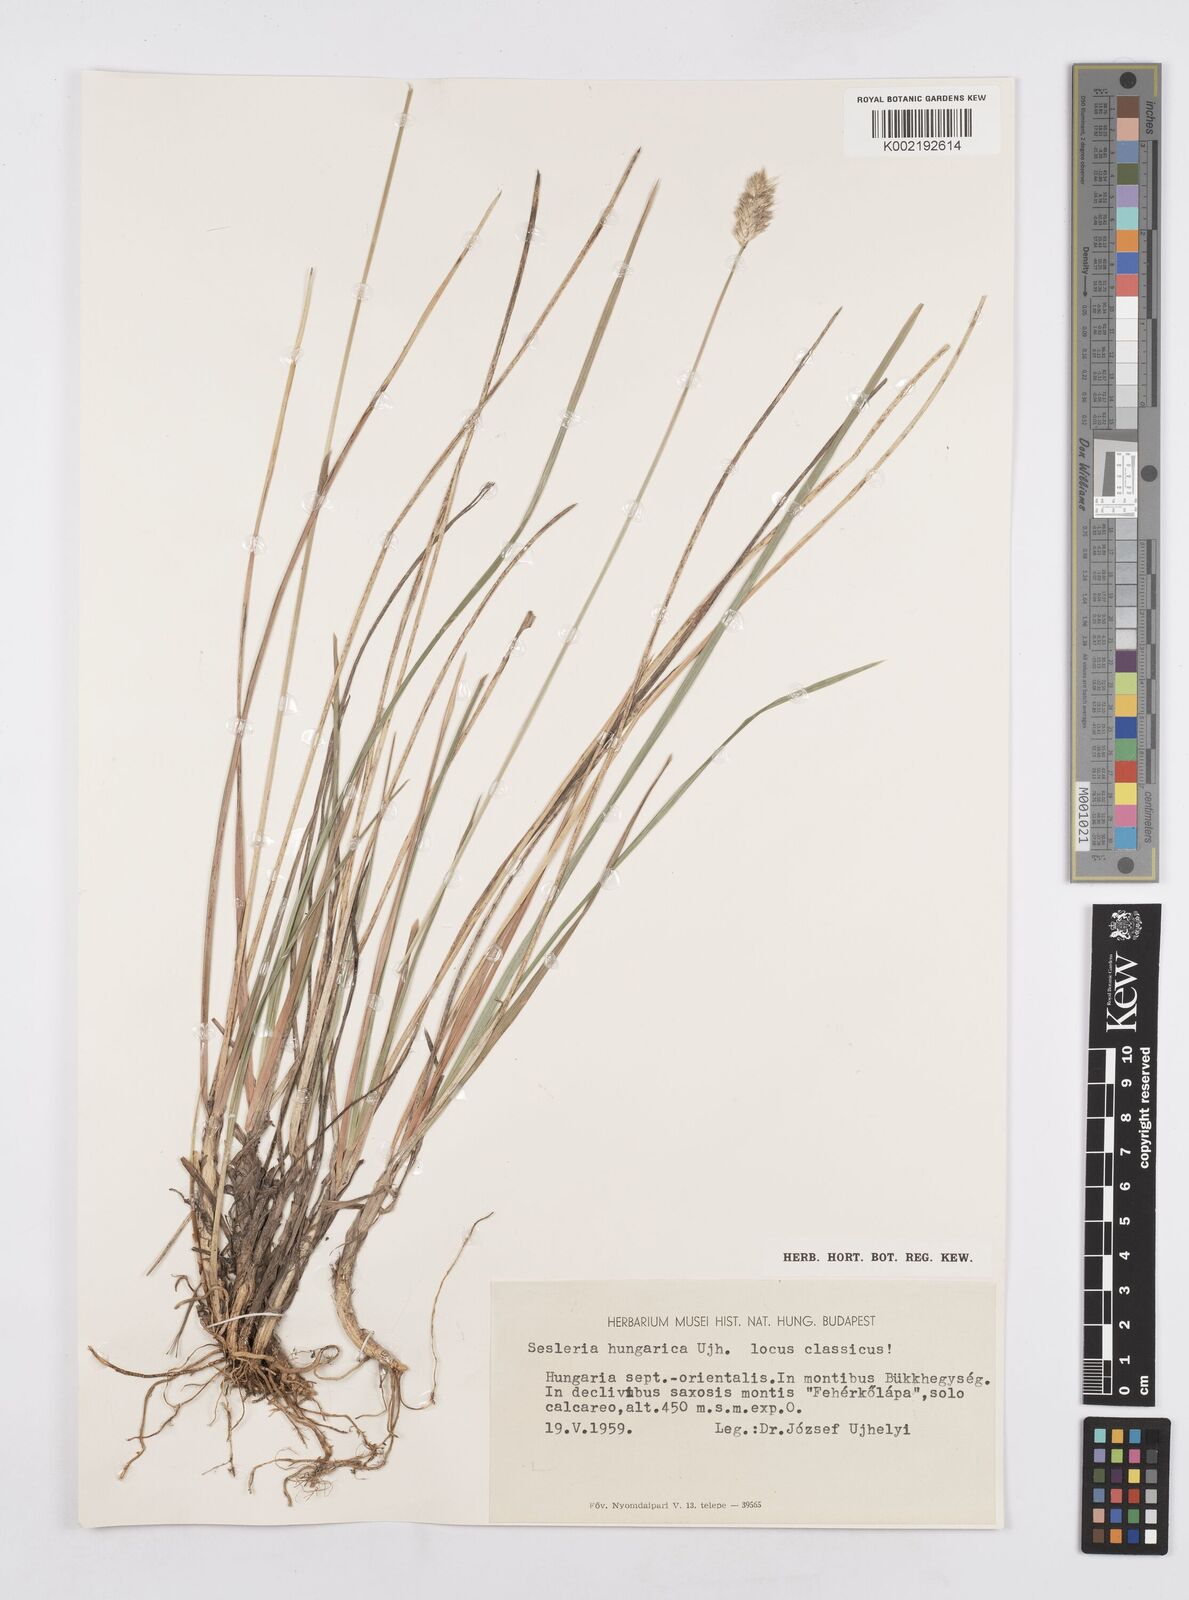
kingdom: Plantae
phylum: Tracheophyta
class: Liliopsida
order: Poales
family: Poaceae
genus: Sesleria
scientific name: Sesleria heufleriana
